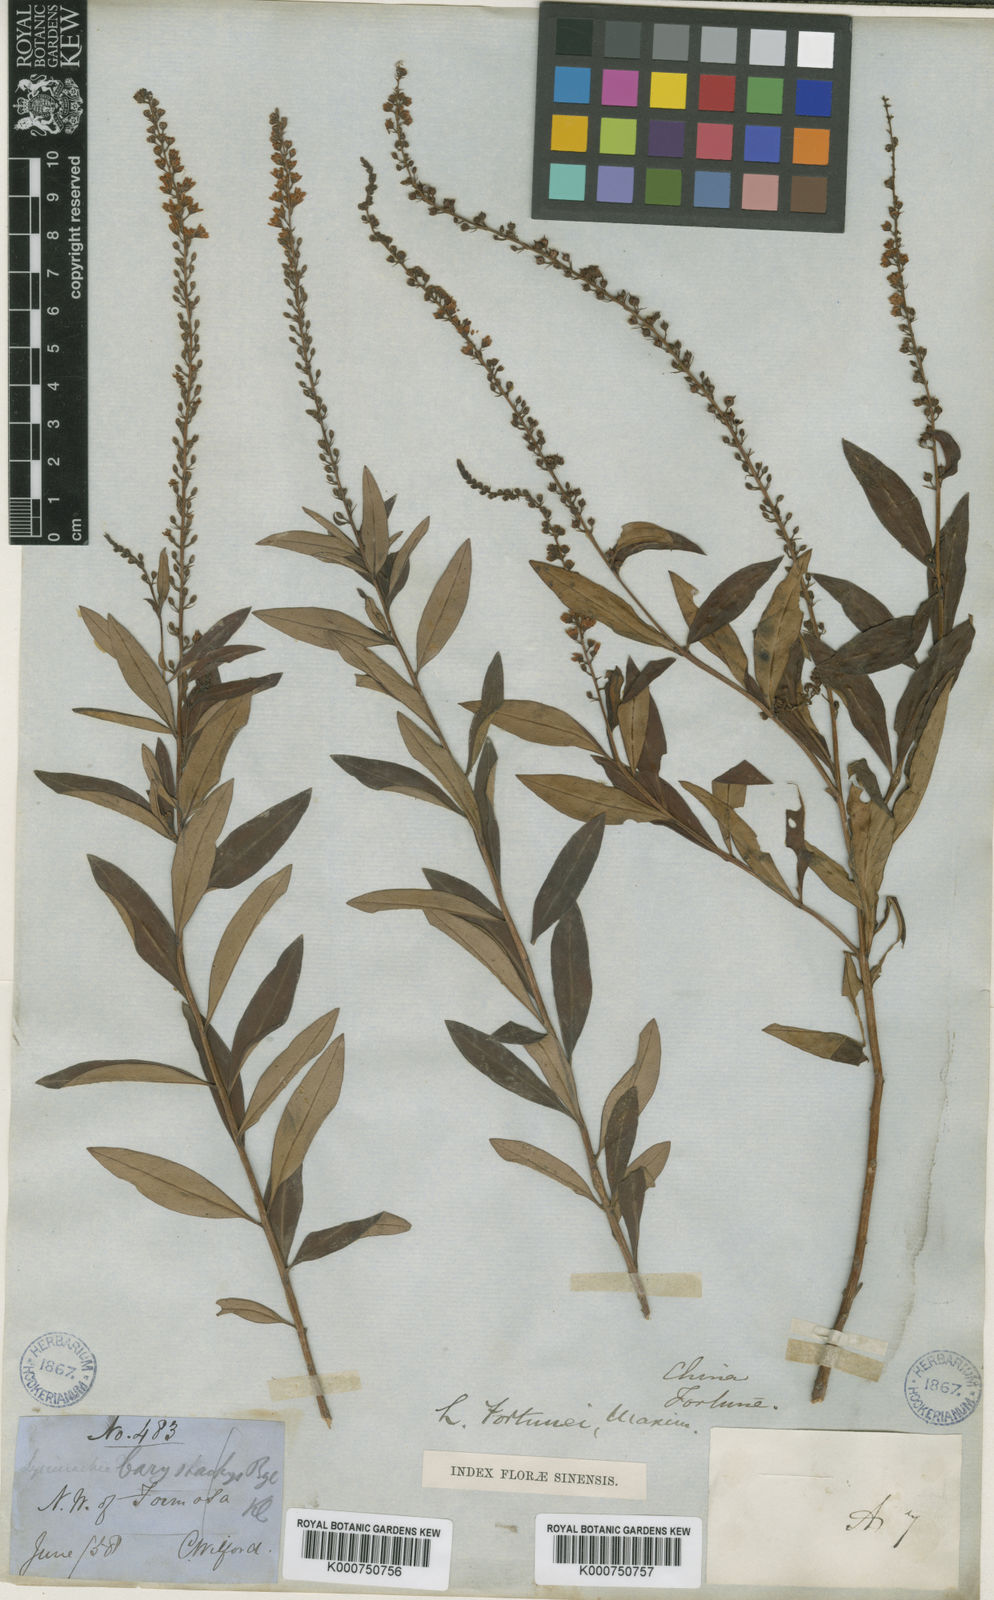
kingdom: Plantae
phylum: Tracheophyta
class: Magnoliopsida
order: Ericales
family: Primulaceae
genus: Lysimachia
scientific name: Lysimachia fortunei
